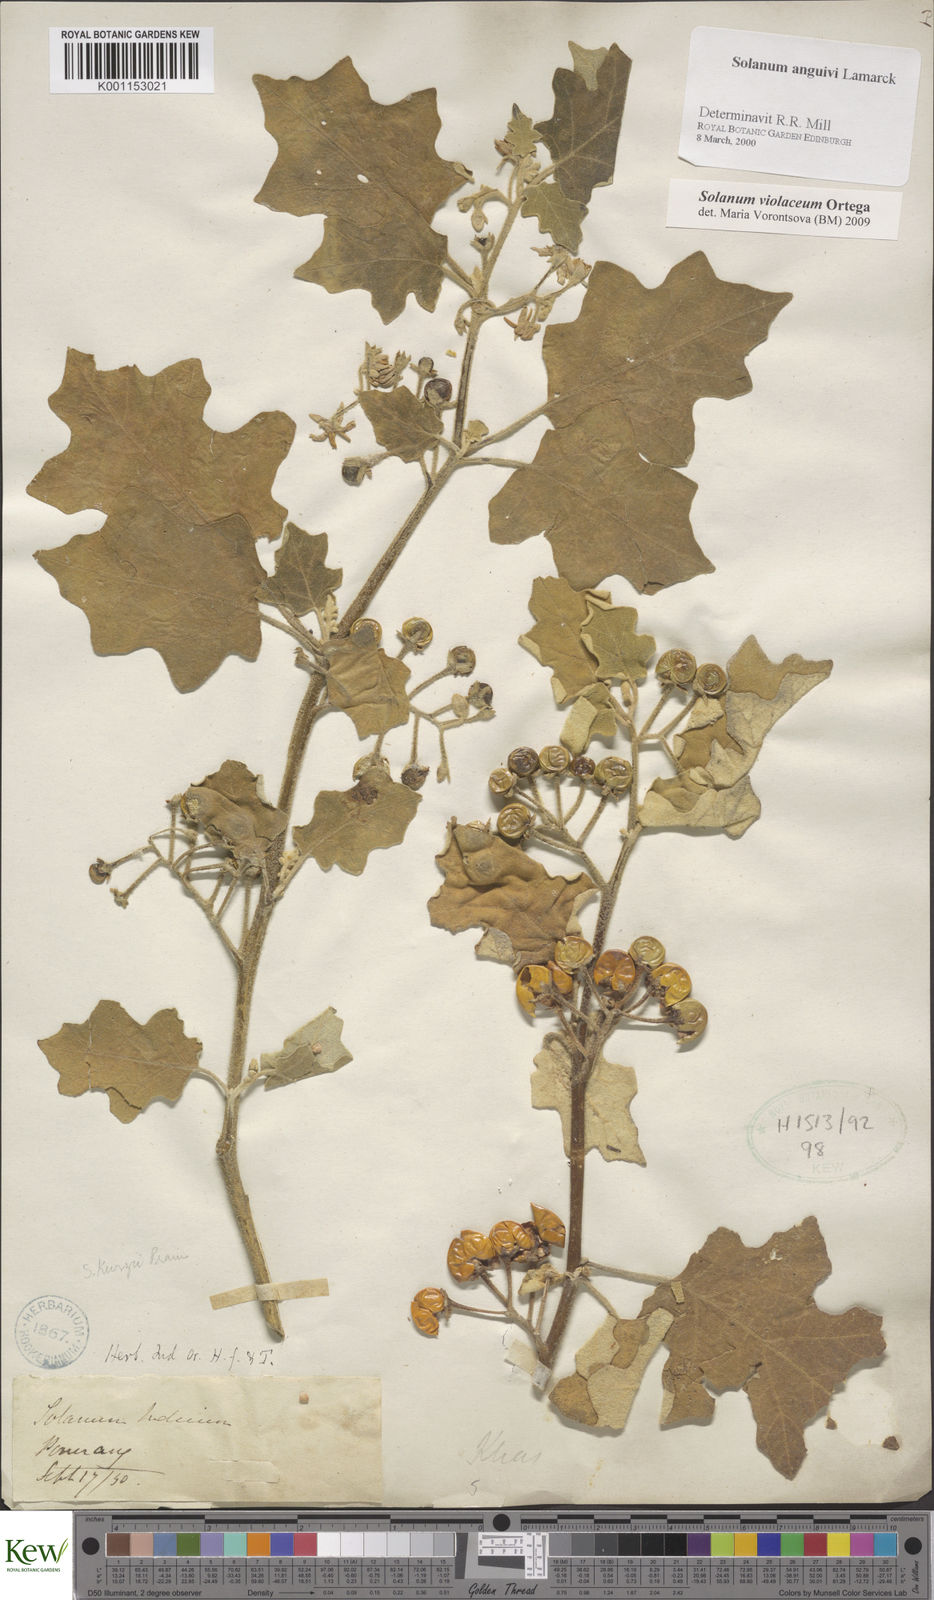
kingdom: Plantae
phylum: Tracheophyta
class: Magnoliopsida
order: Solanales
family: Solanaceae
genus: Solanum
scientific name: Solanum violaceum
